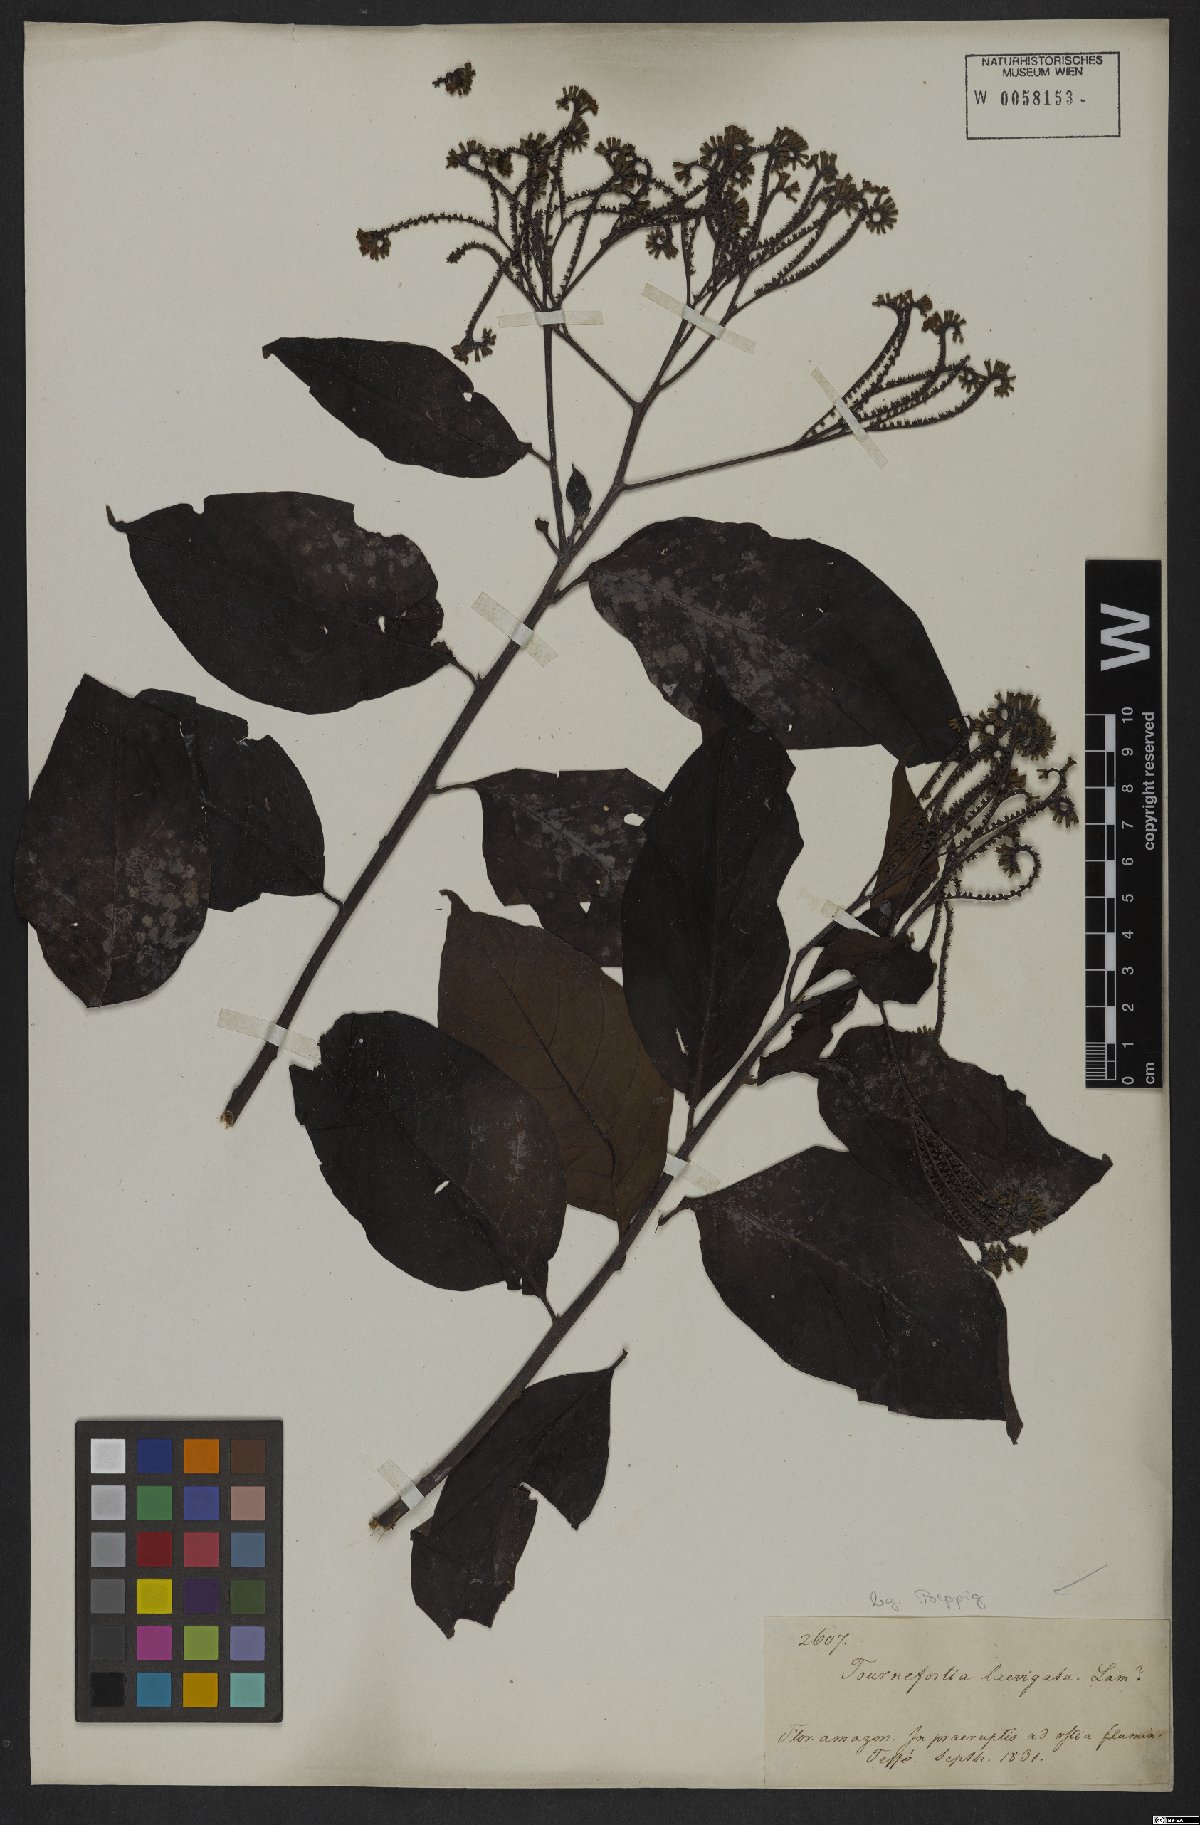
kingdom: Plantae
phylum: Tracheophyta
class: Magnoliopsida
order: Boraginales
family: Heliotropiaceae
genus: Heliotropium
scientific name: Heliotropium laevigatum
